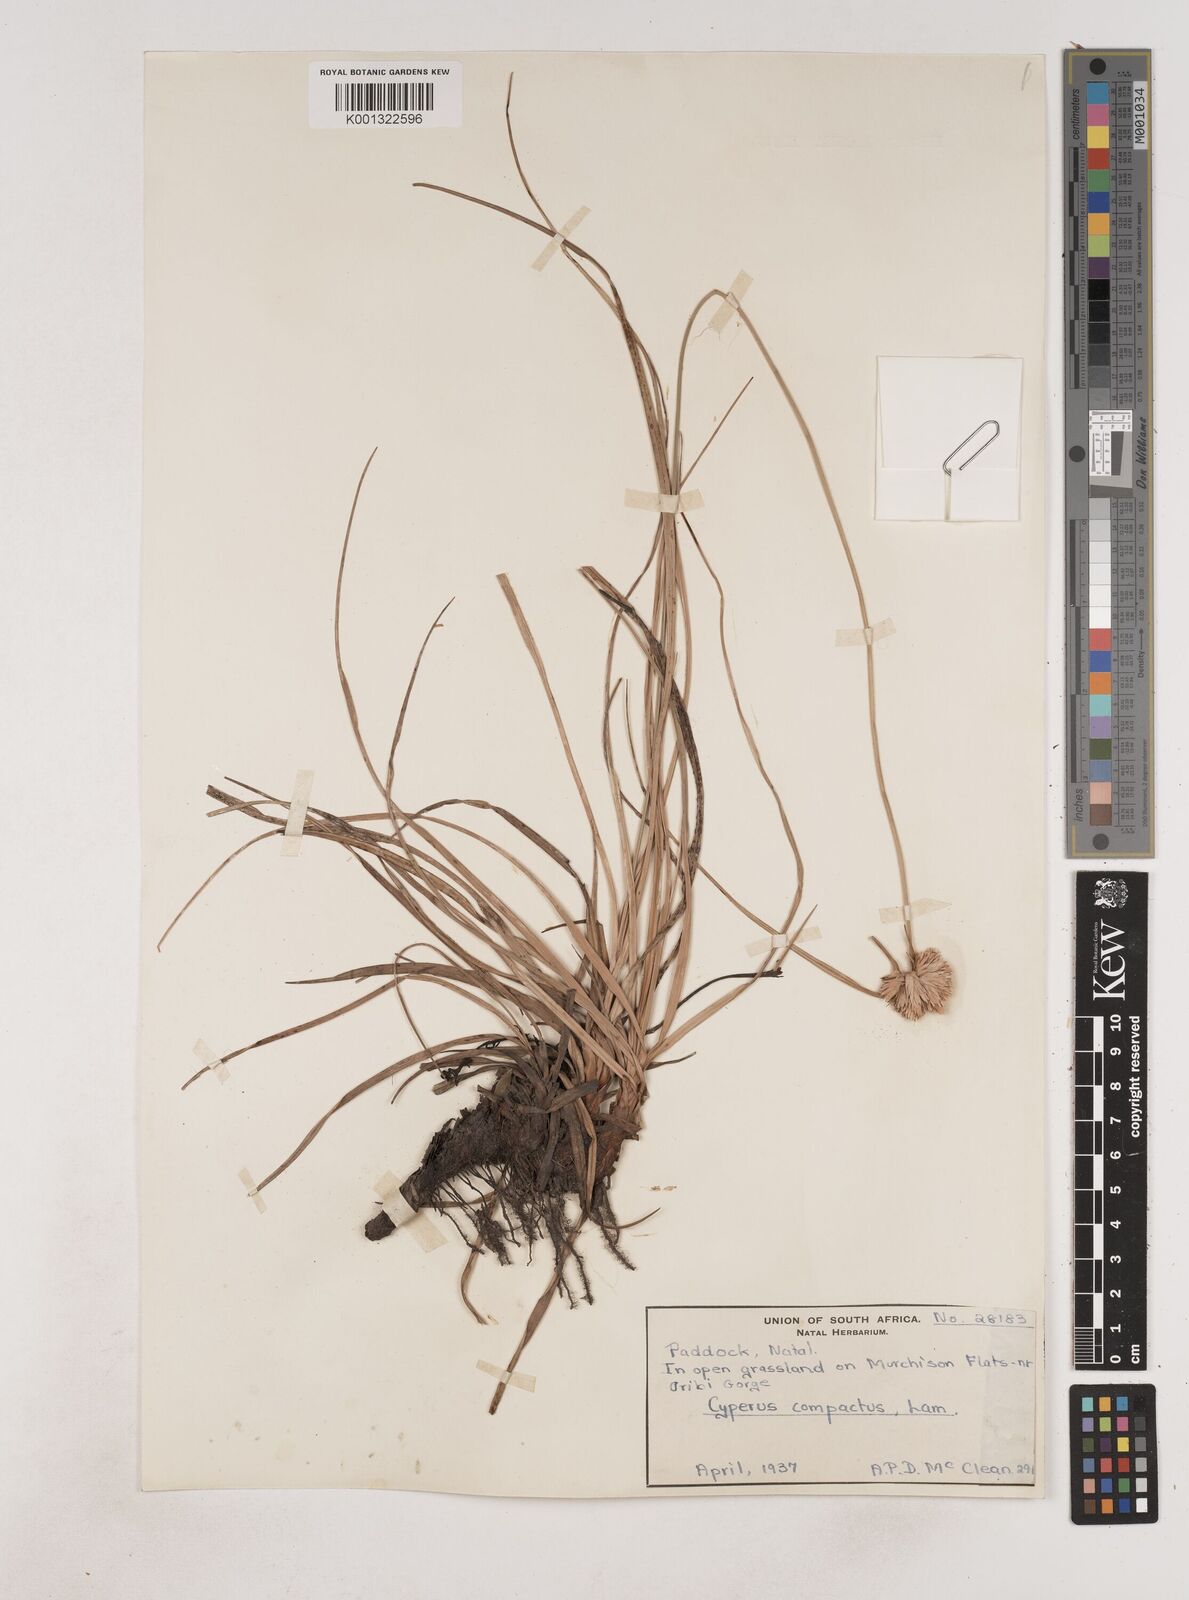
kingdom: Plantae
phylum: Tracheophyta
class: Liliopsida
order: Poales
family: Cyperaceae
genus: Cyperus
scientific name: Cyperus niveus
